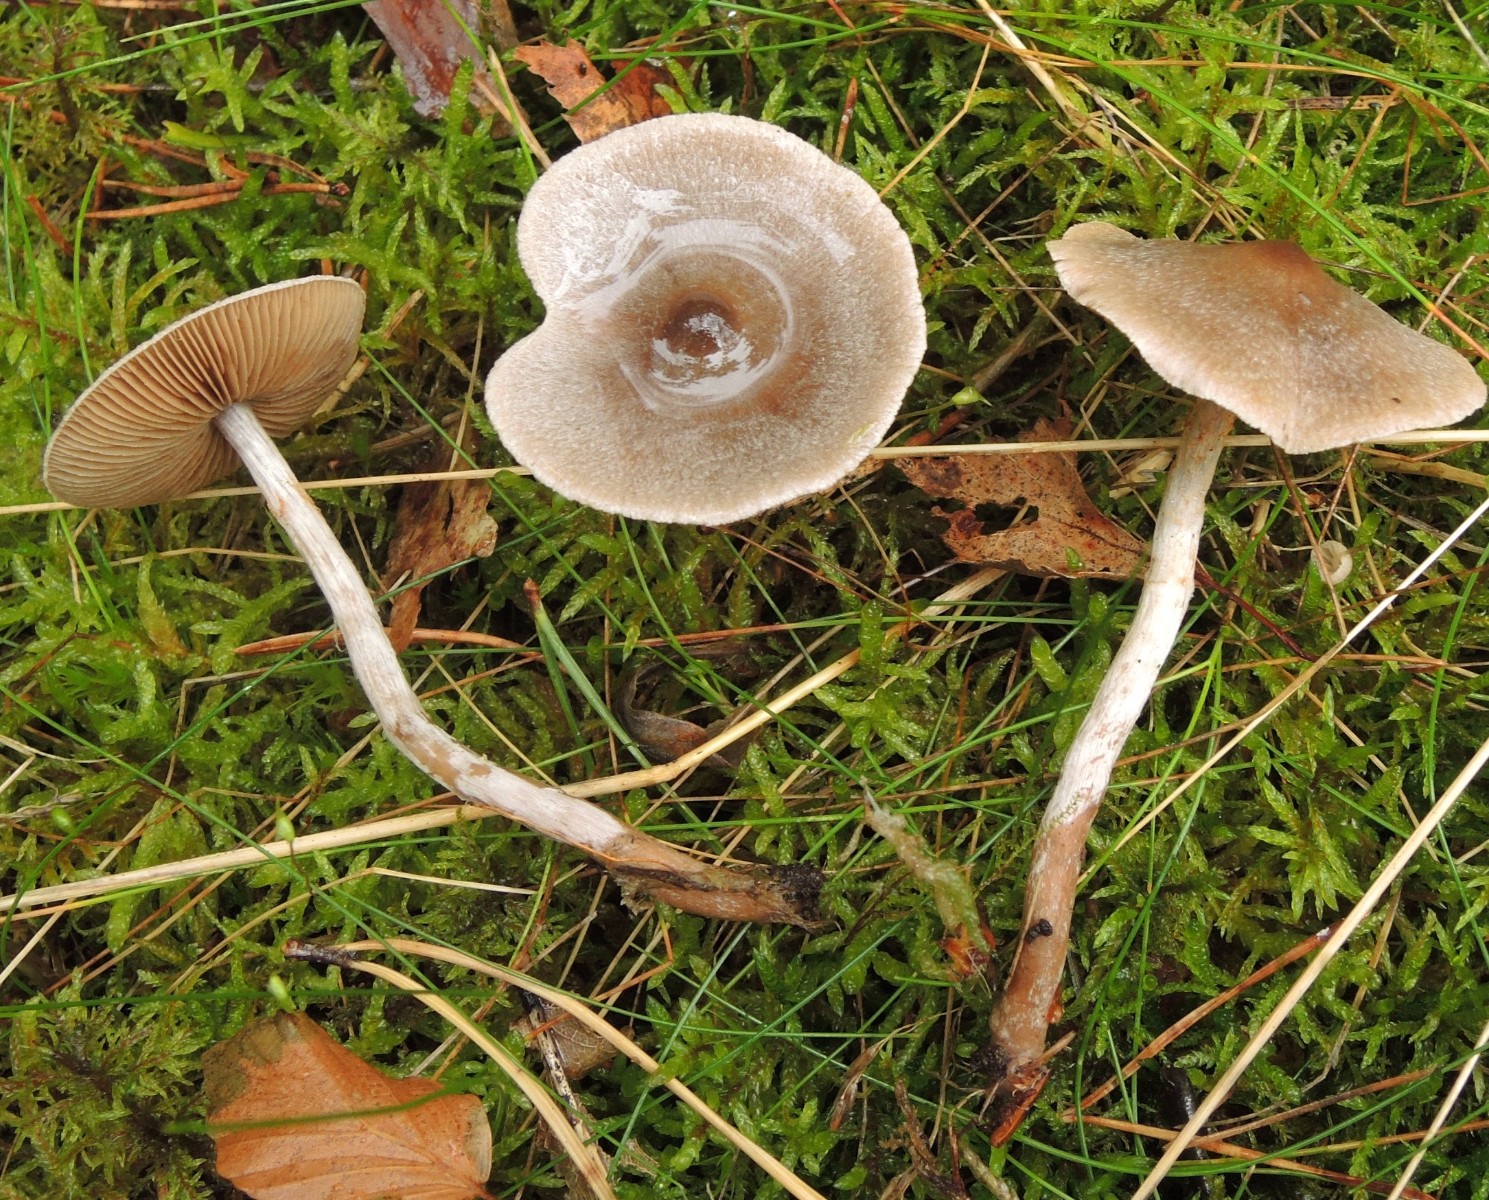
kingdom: Fungi
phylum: Basidiomycota
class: Agaricomycetes
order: Agaricales
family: Cortinariaceae
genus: Cortinarius
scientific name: Cortinarius hemitrichus
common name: hvidfnugget slørhat
